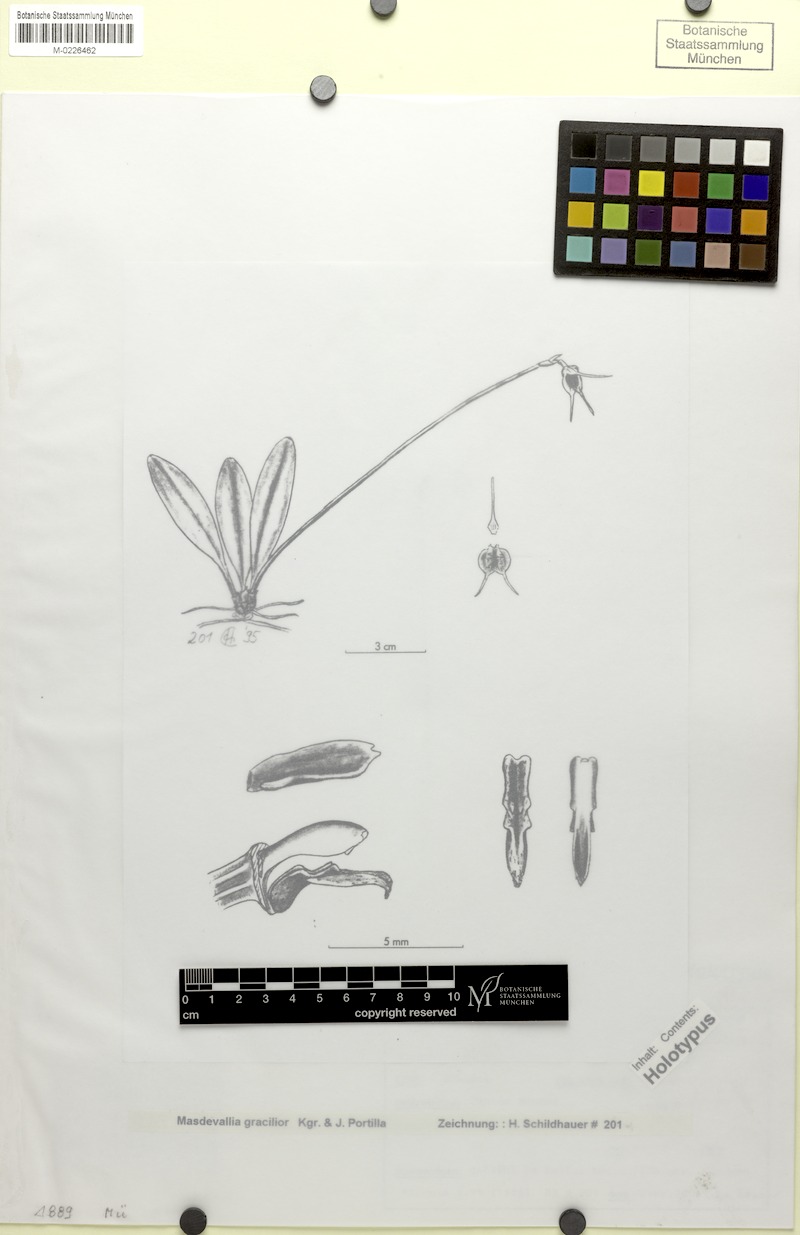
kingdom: Plantae
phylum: Tracheophyta
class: Liliopsida
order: Asparagales
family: Orchidaceae
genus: Masdevallia
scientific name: Masdevallia lenae
